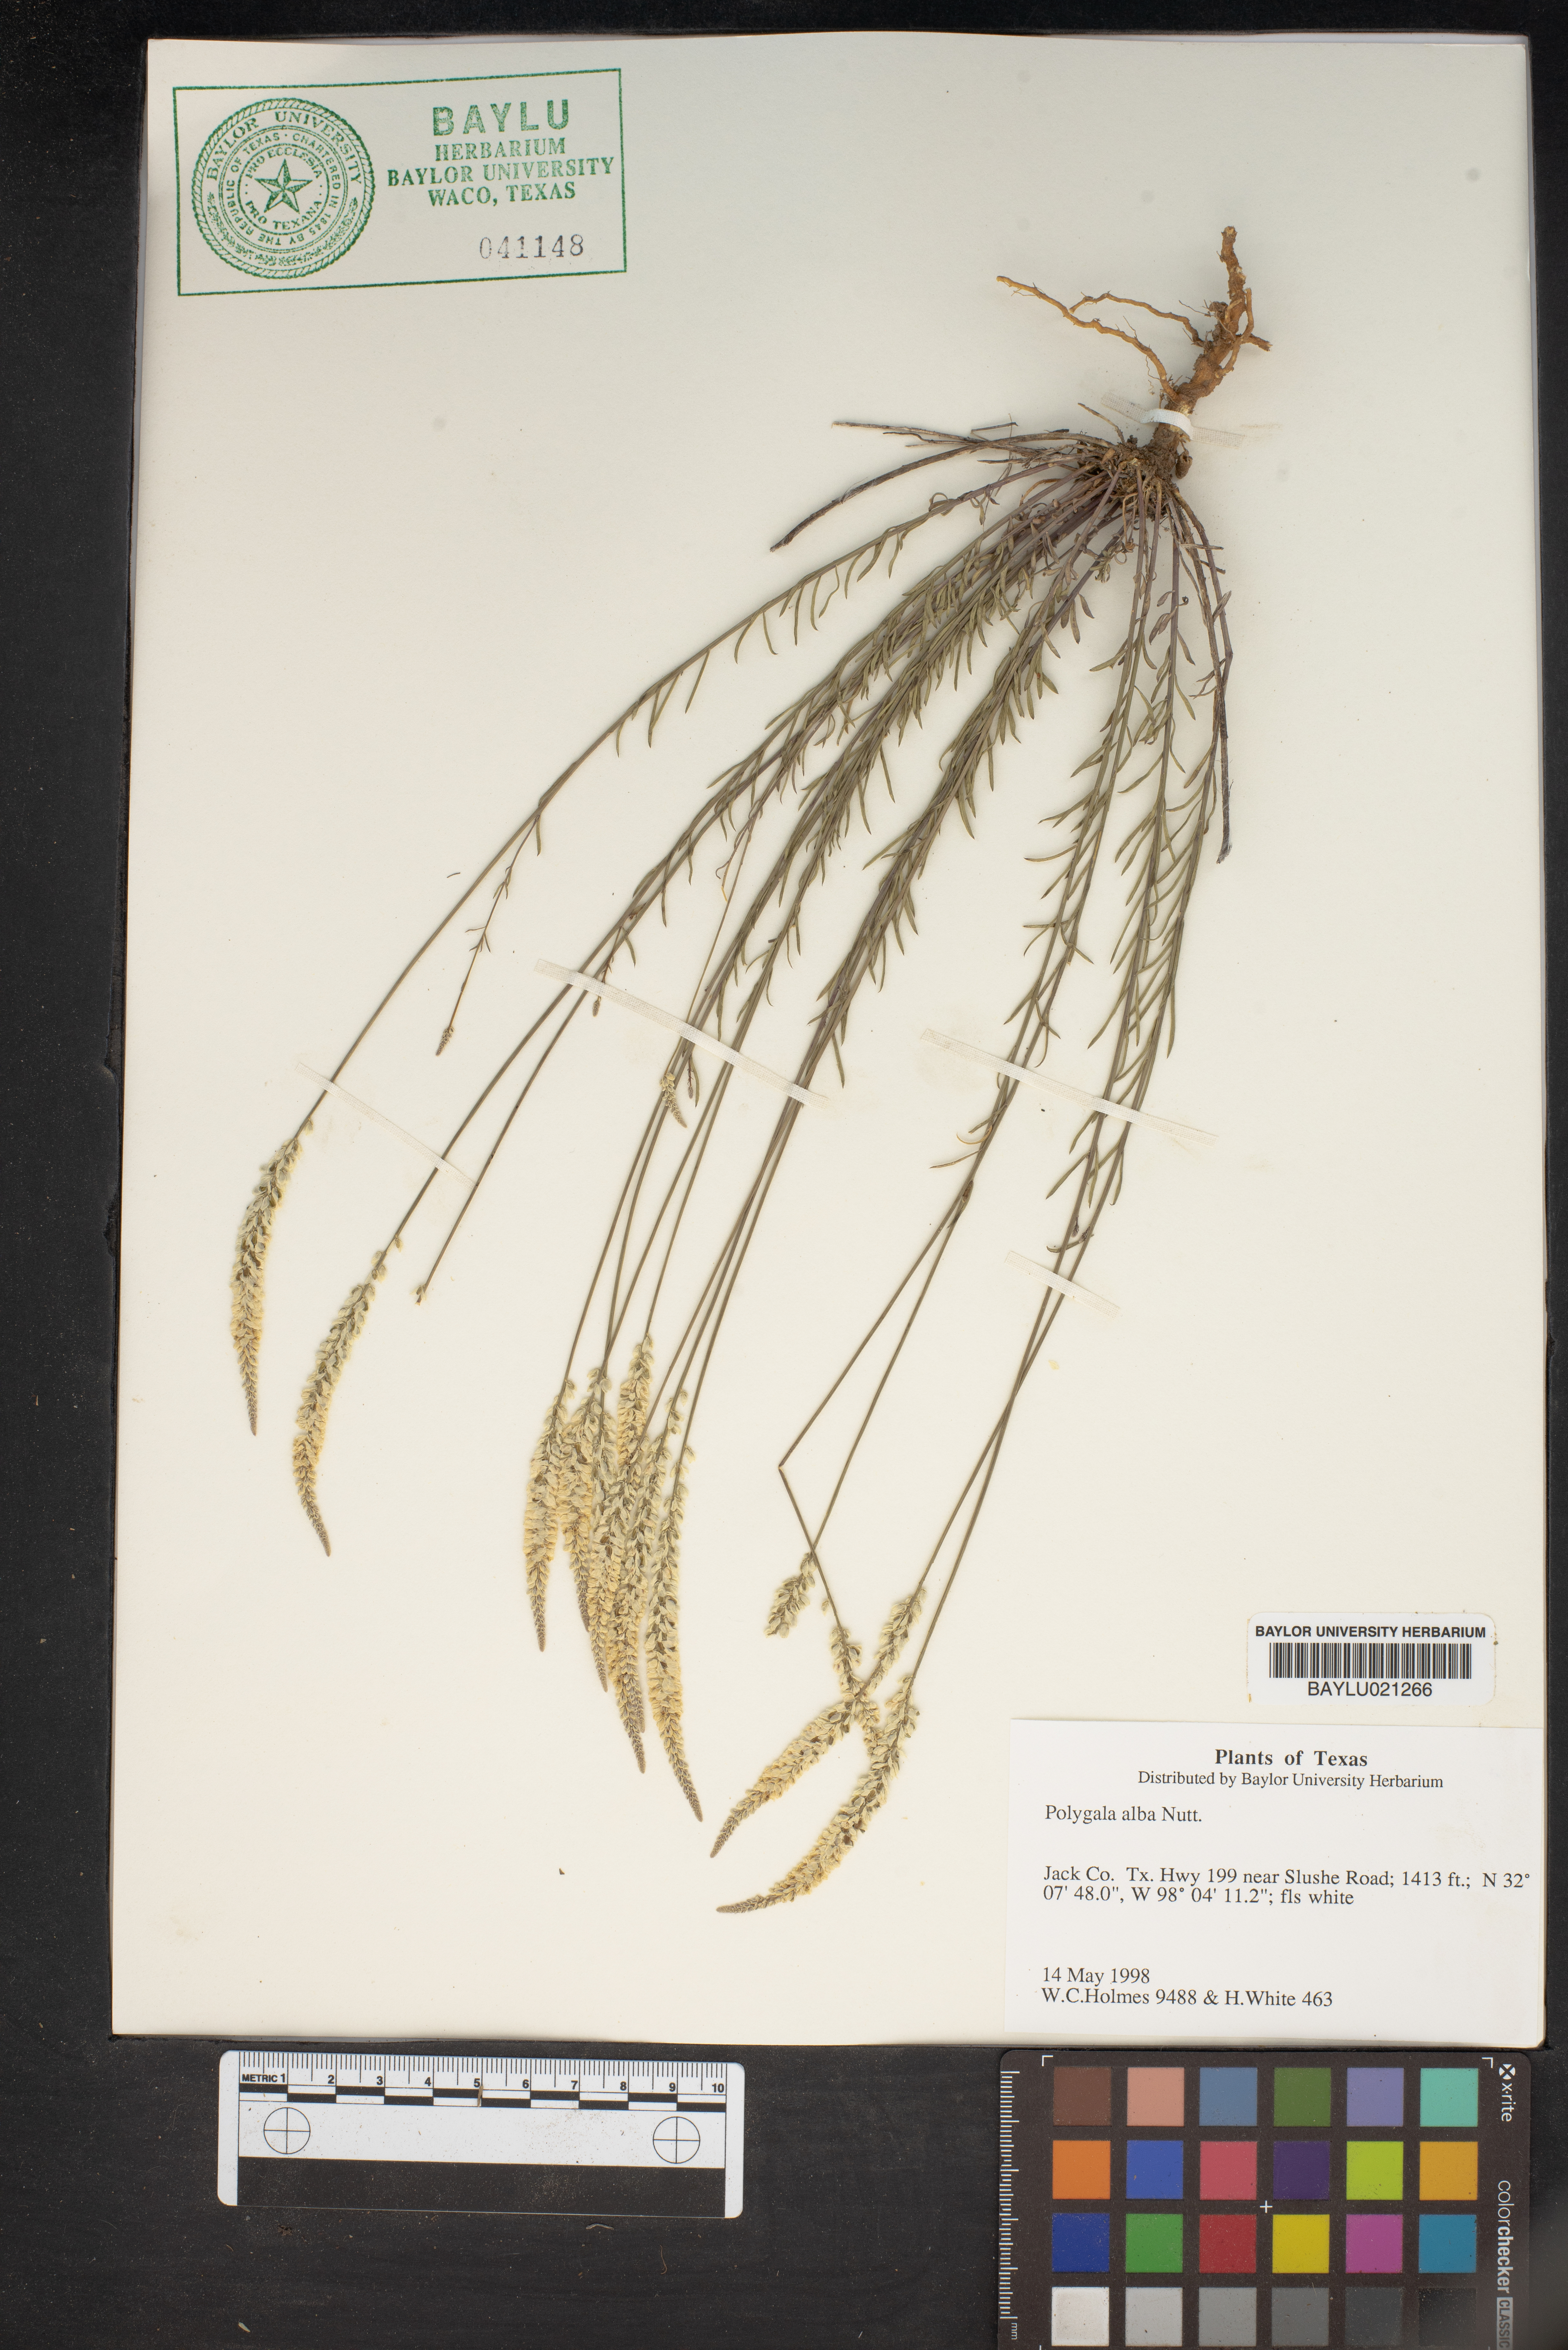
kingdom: Plantae
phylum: Tracheophyta
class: Magnoliopsida
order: Fabales
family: Polygalaceae
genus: Polygala
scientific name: Polygala alba
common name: White milkwort
